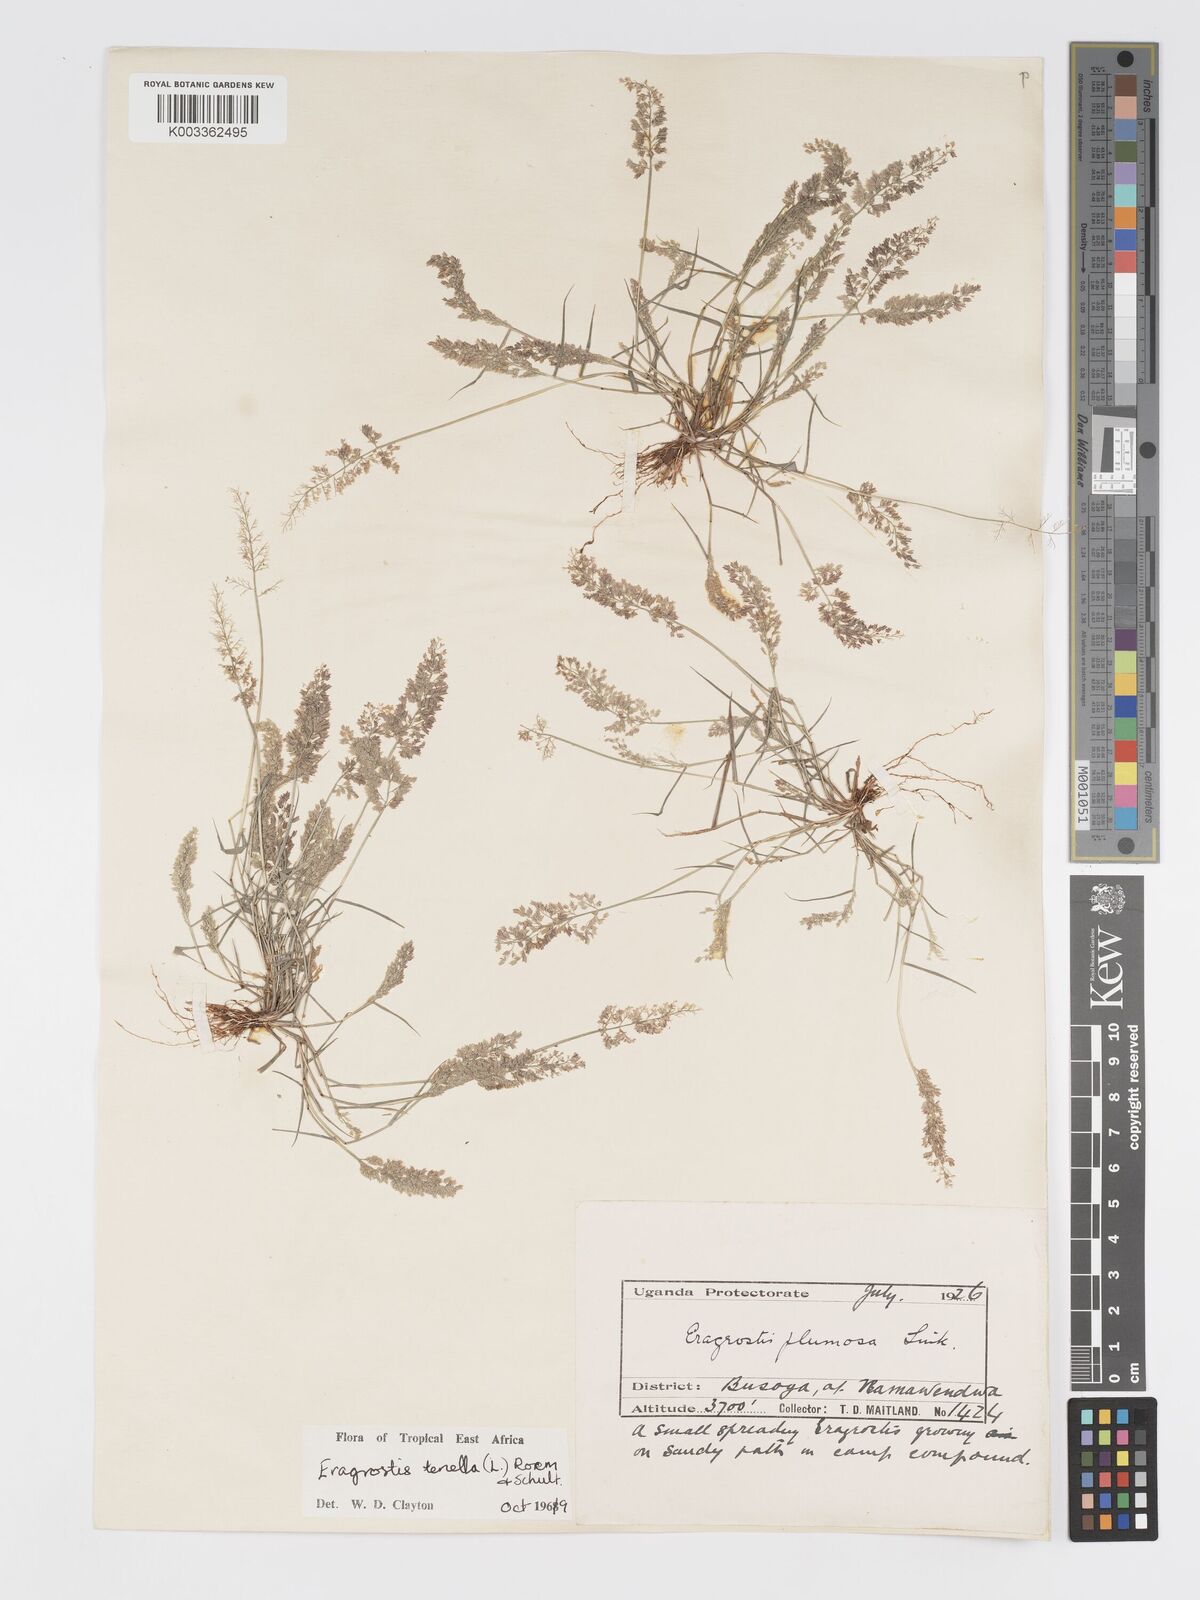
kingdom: Plantae
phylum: Tracheophyta
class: Liliopsida
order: Poales
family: Poaceae
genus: Eragrostis
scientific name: Eragrostis tenella
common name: Japanese lovegrass
